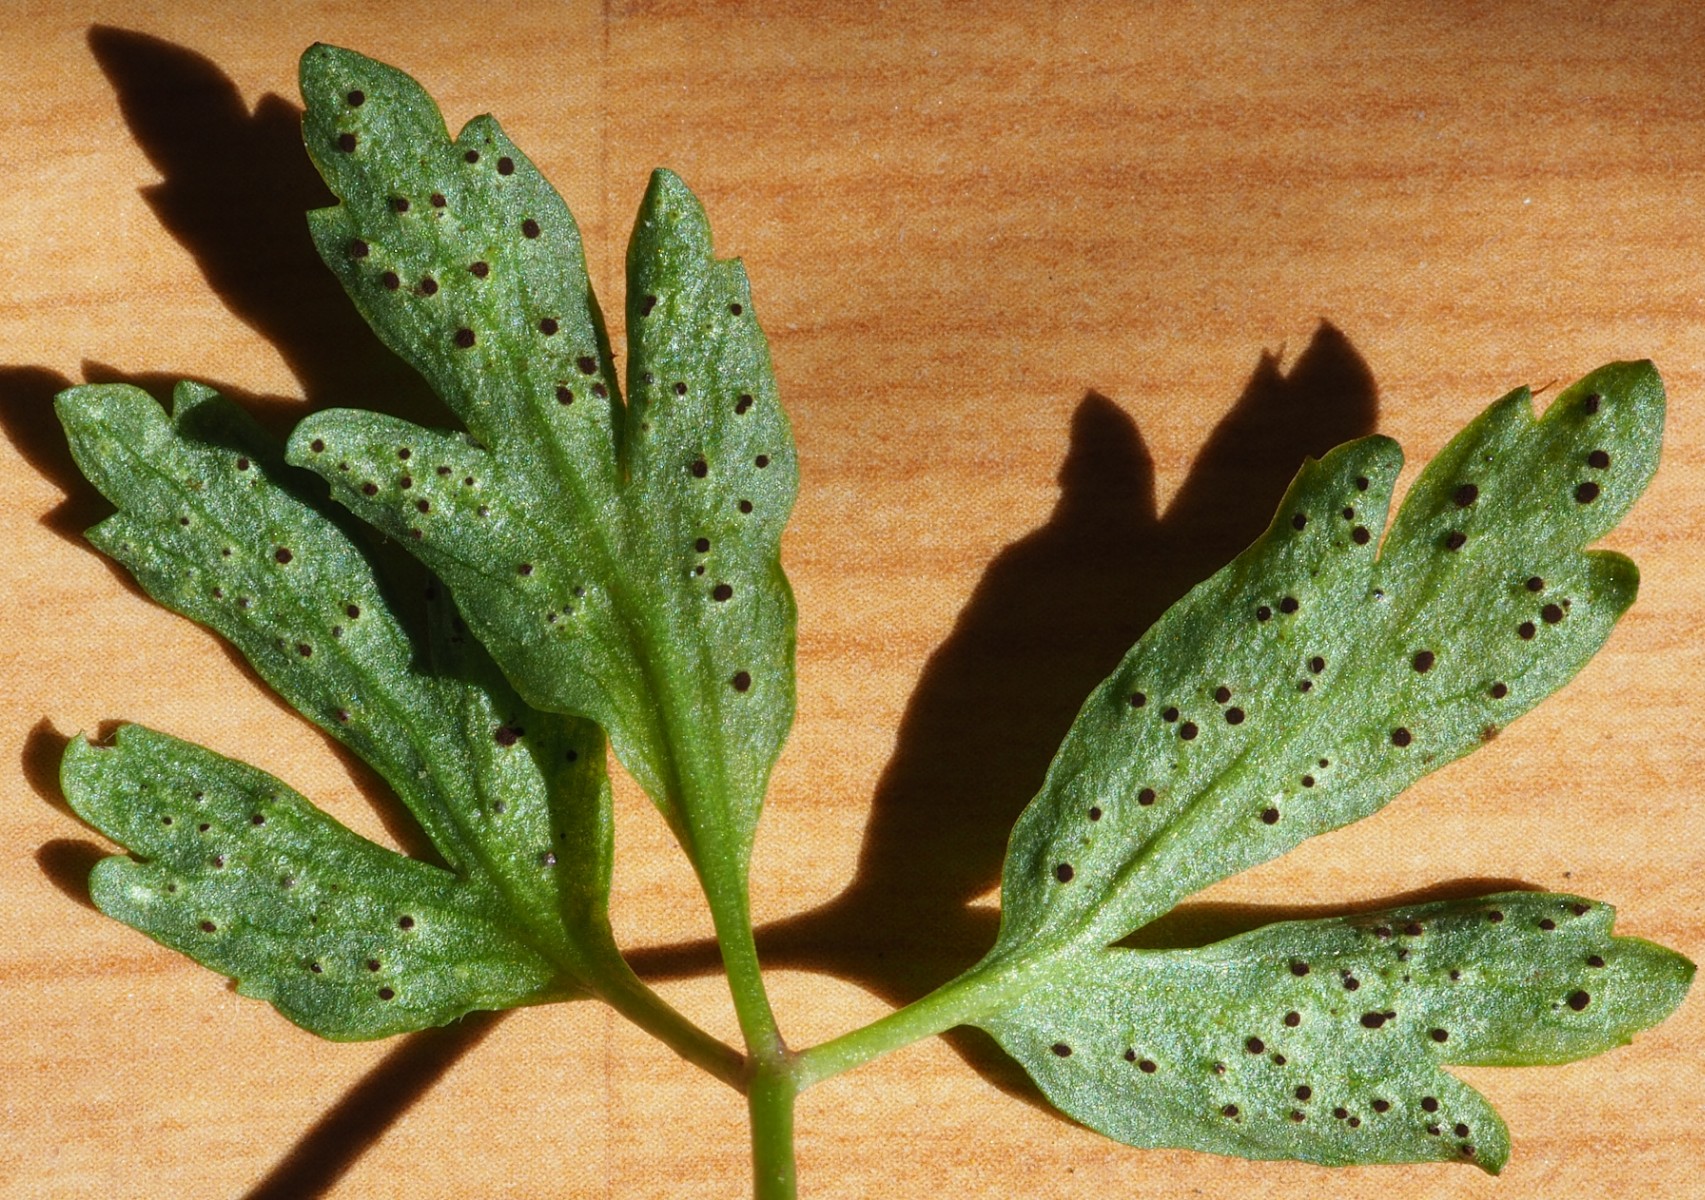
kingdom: Fungi
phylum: Basidiomycota
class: Pucciniomycetes
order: Pucciniales
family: Tranzscheliaceae
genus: Tranzschelia
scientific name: Tranzschelia anemones
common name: anemone-knæksporerust
